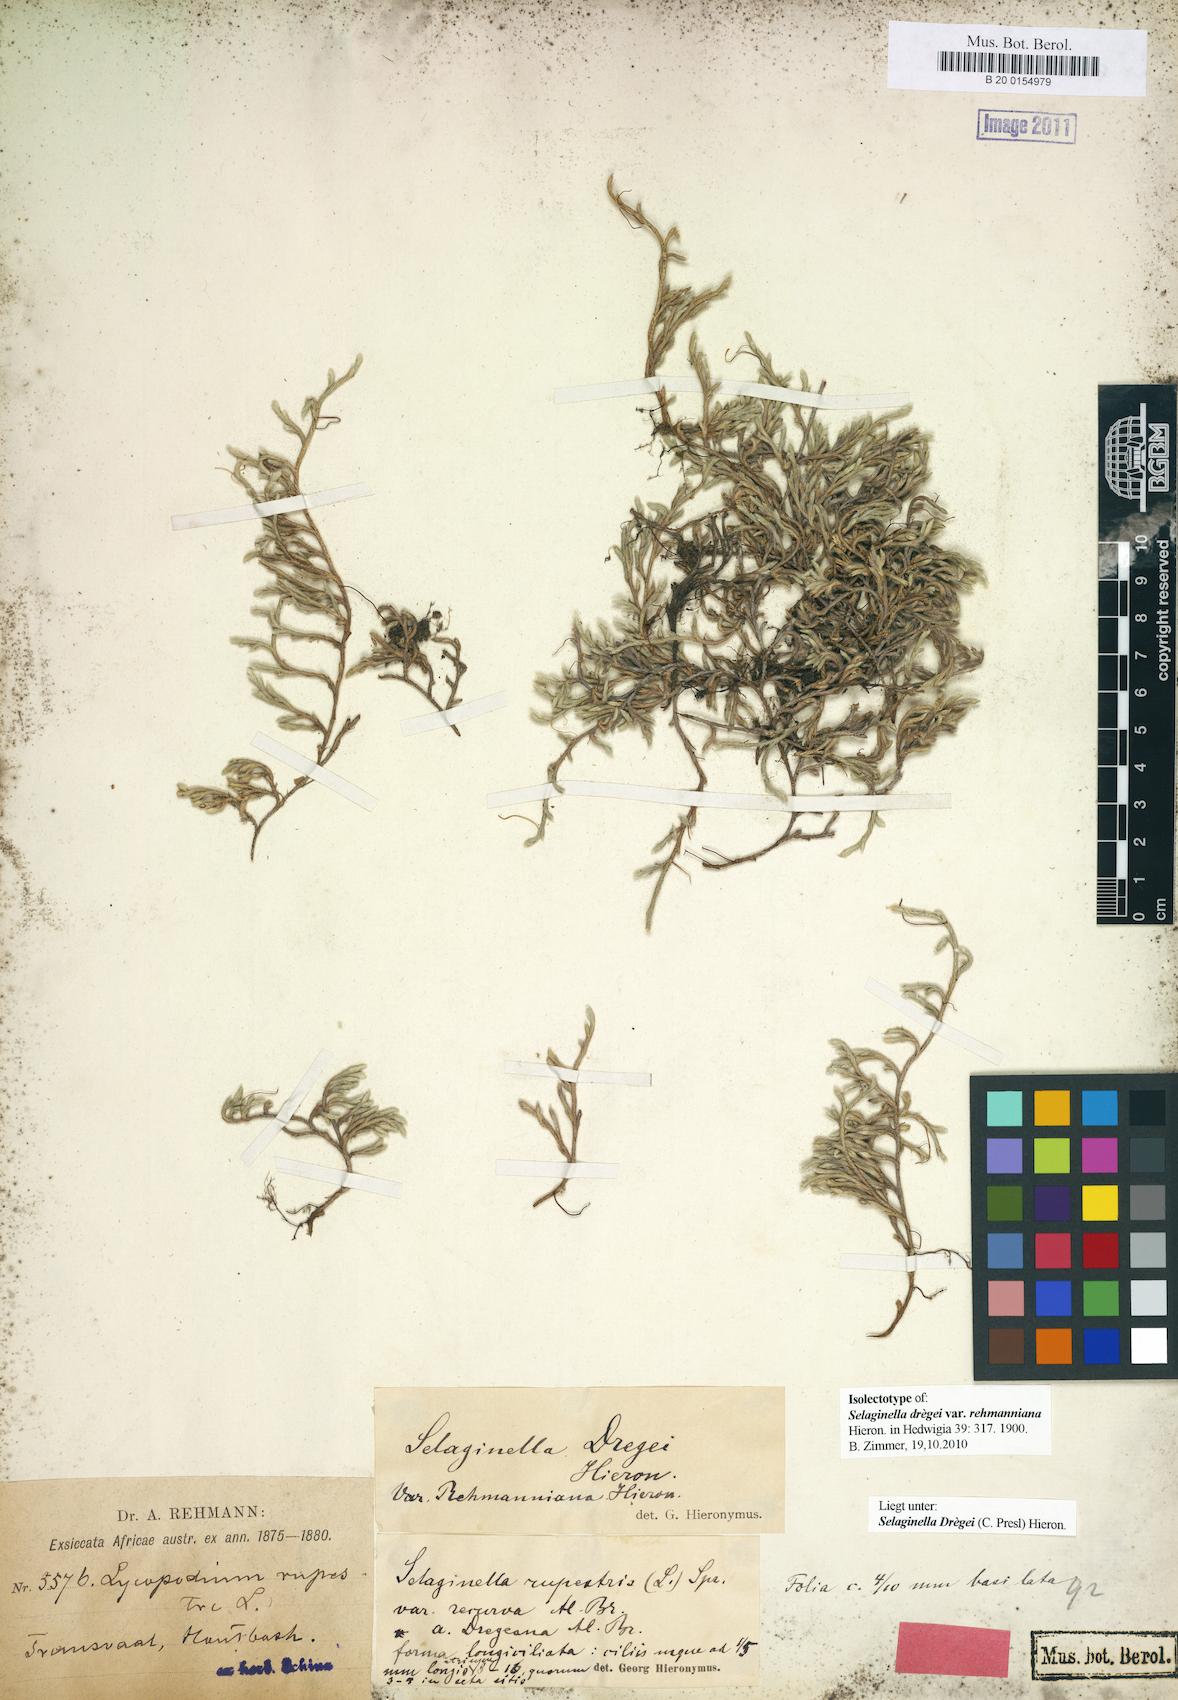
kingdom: Plantae
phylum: Tracheophyta
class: Lycopodiopsida
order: Selaginellales
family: Selaginellaceae
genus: Selaginella
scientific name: Selaginella dregei
